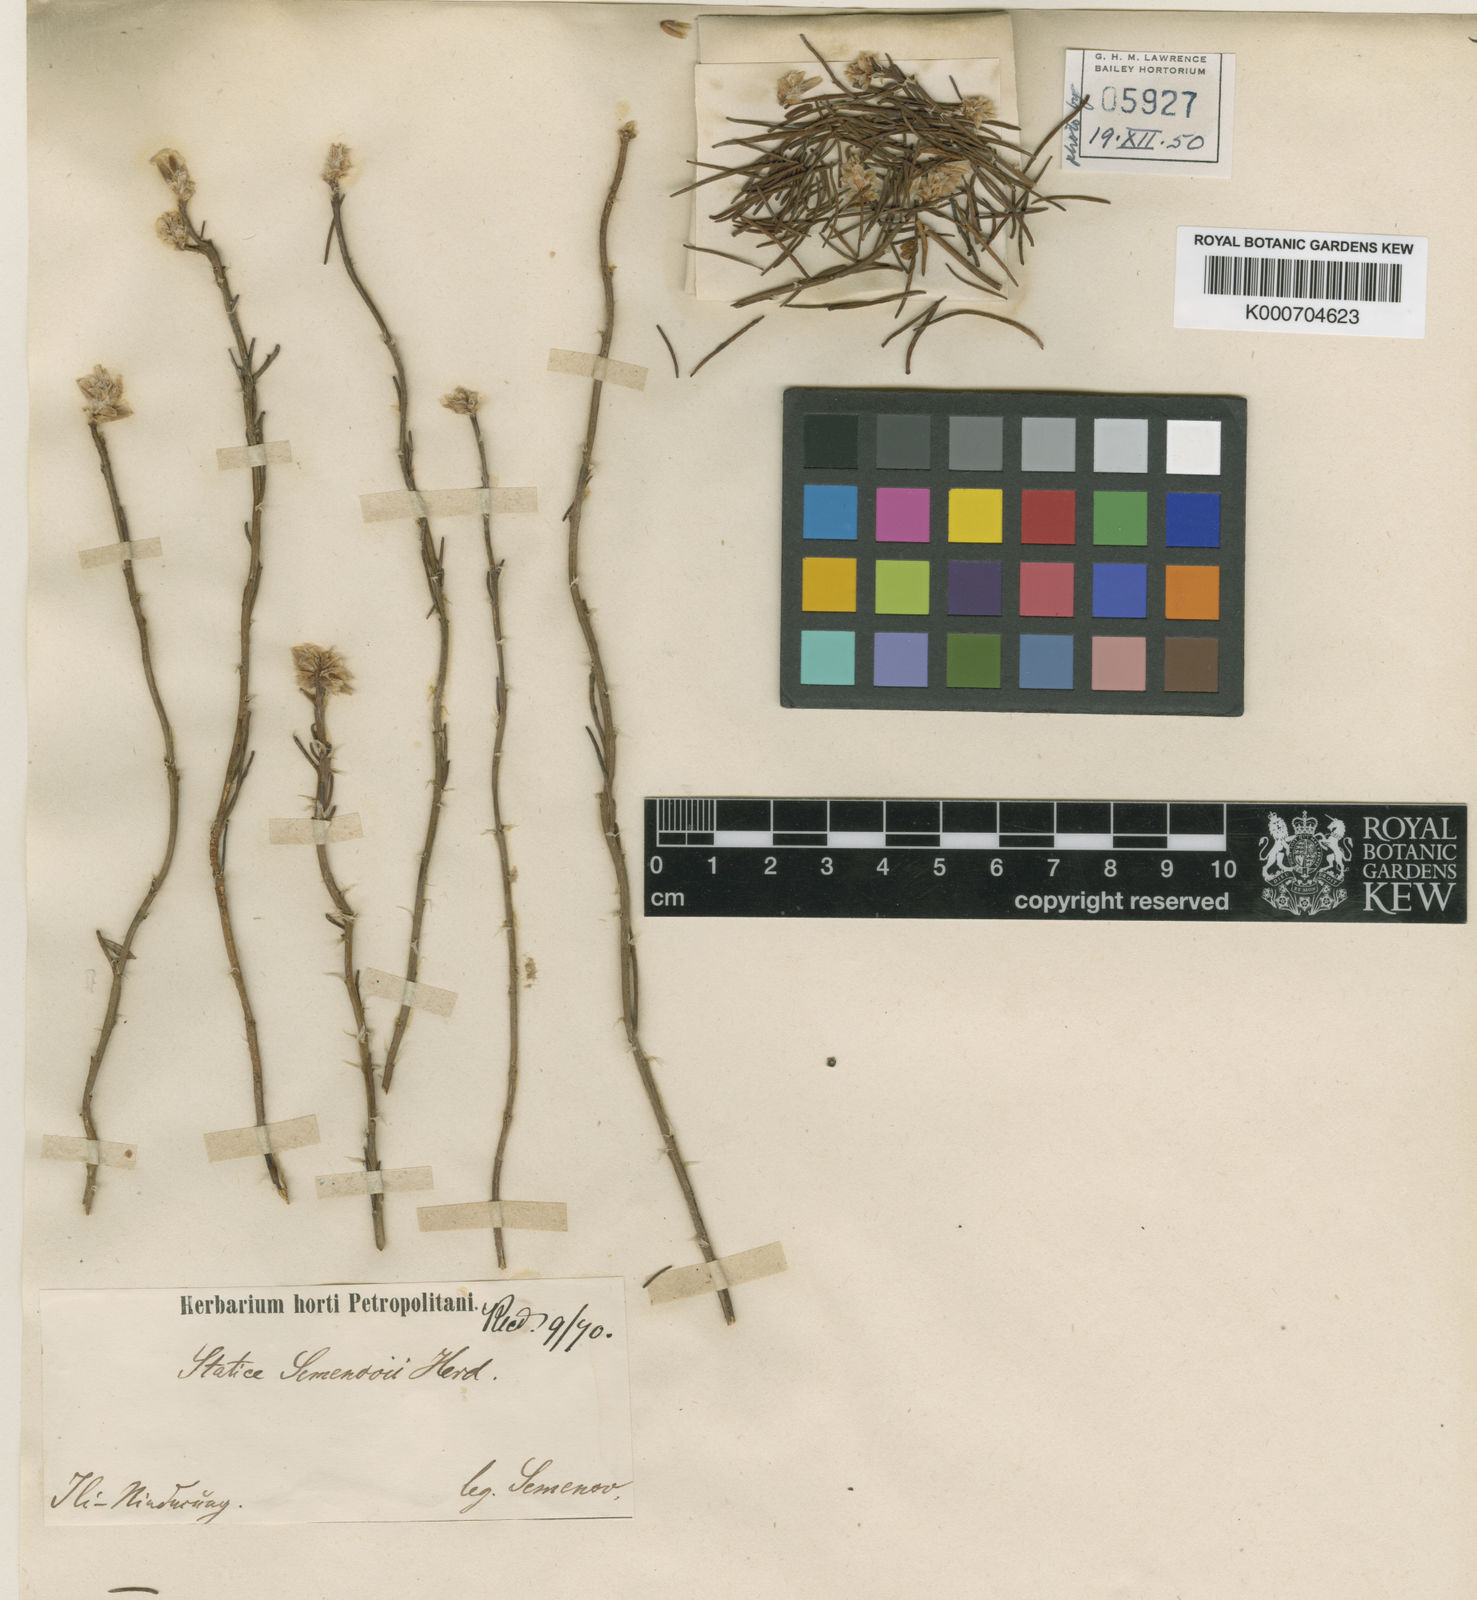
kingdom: Plantae
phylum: Tracheophyta
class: Magnoliopsida
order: Caryophyllales
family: Plumbaginaceae
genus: Limonium
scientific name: Limonium chrysocomum
